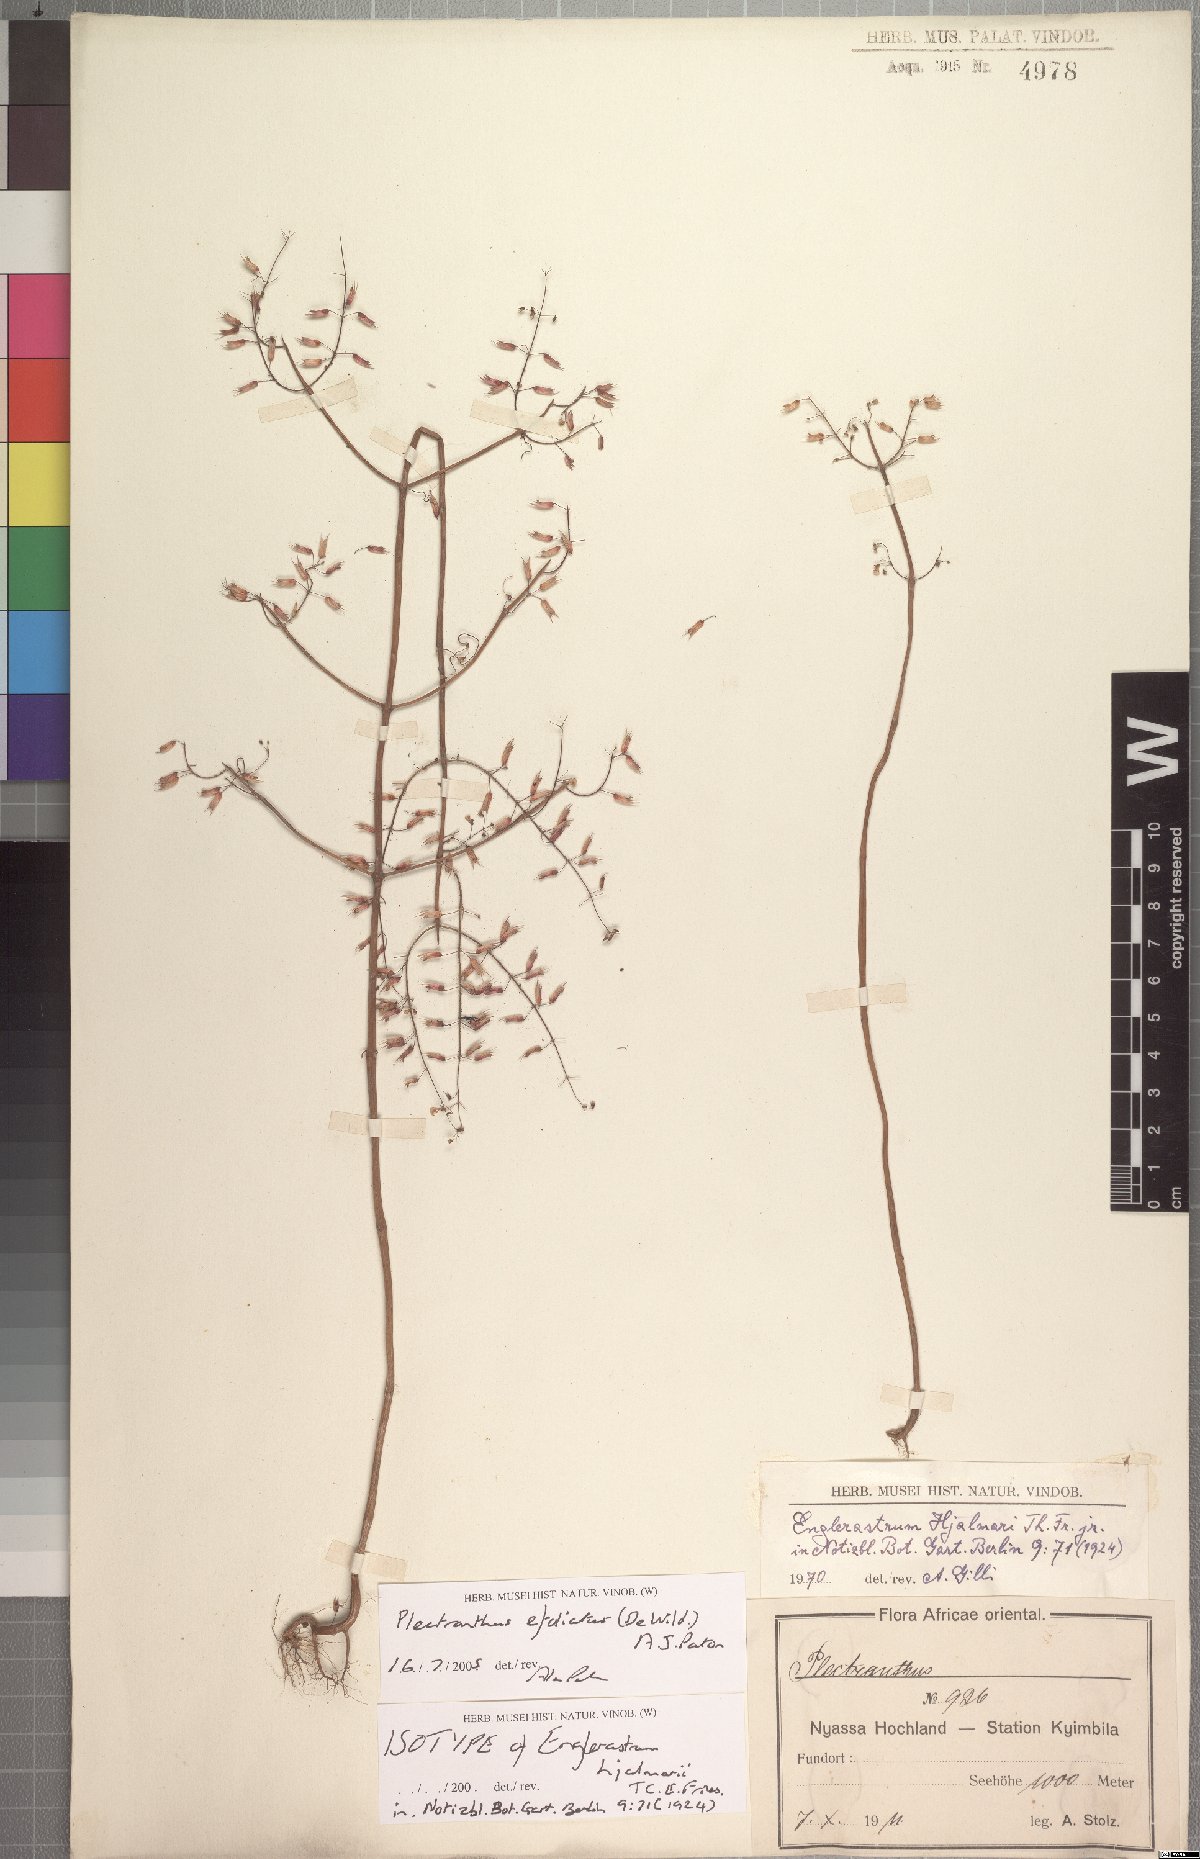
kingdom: Plantae
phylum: Tracheophyta
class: Magnoliopsida
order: Lamiales
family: Lamiaceae
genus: Coleus
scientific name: Coleus efoliatus
